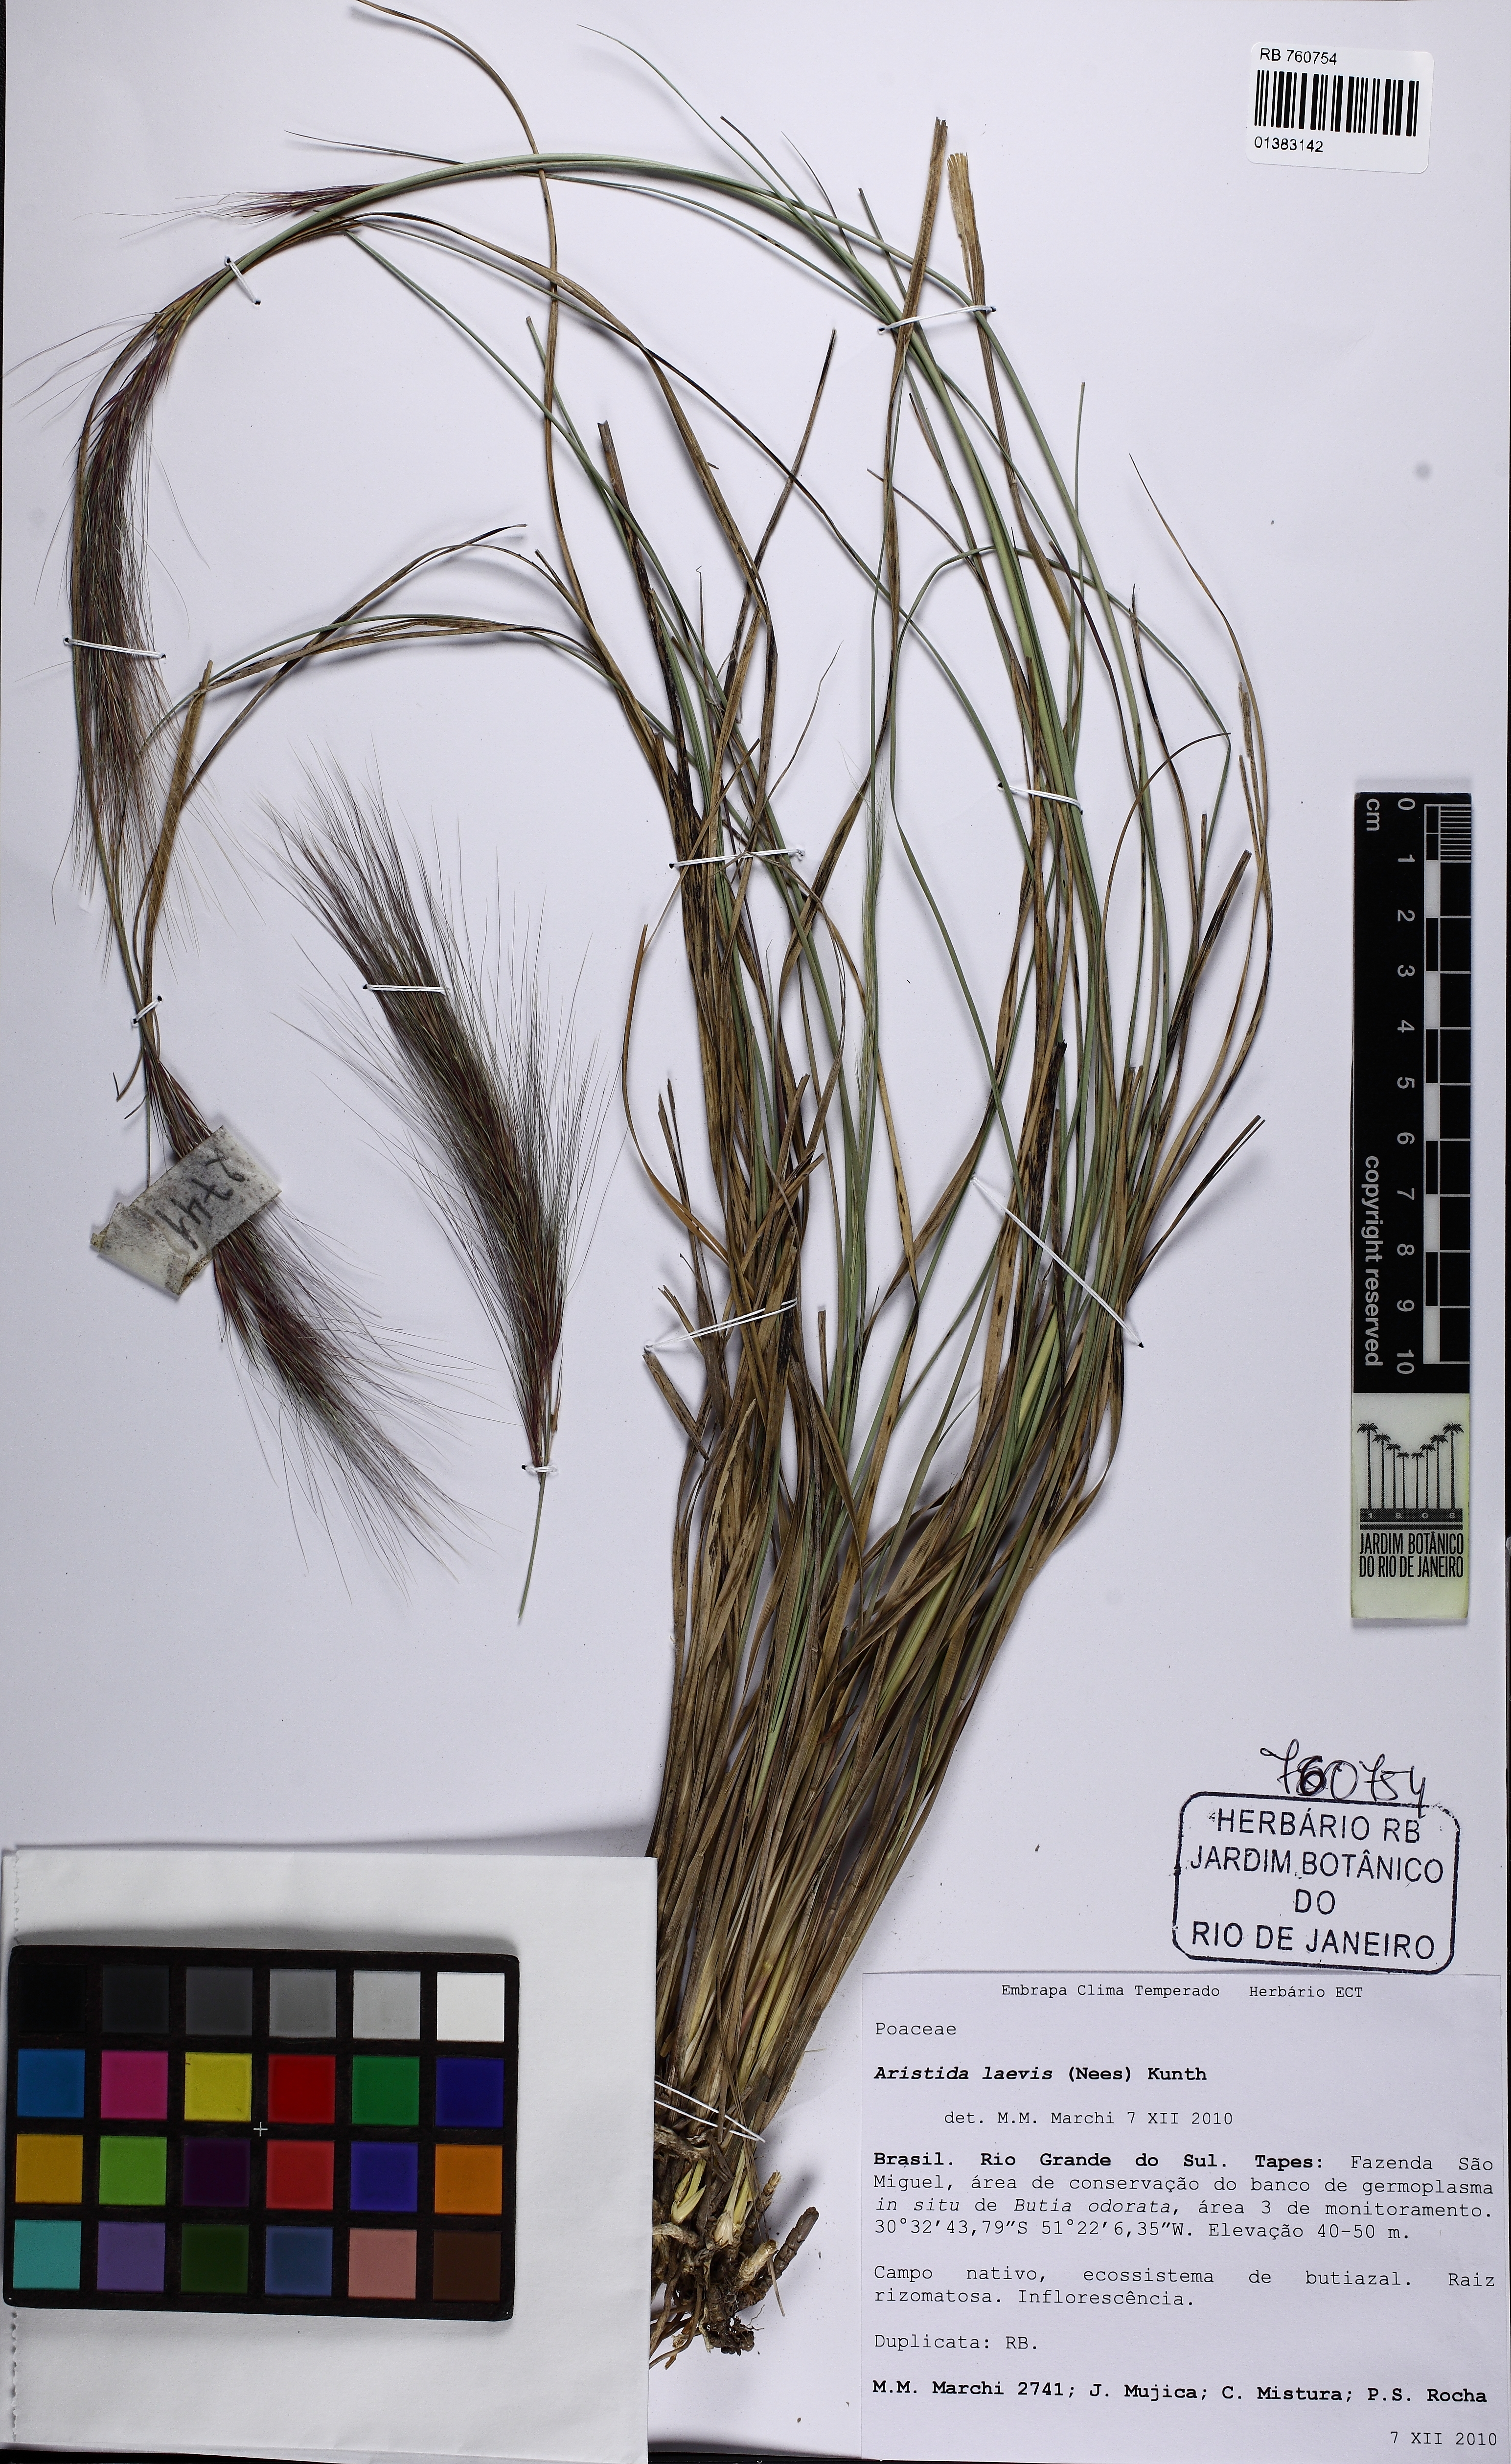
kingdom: Plantae
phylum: Tracheophyta
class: Liliopsida
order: Poales
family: Poaceae
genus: Aristida
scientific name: Aristida laevis
